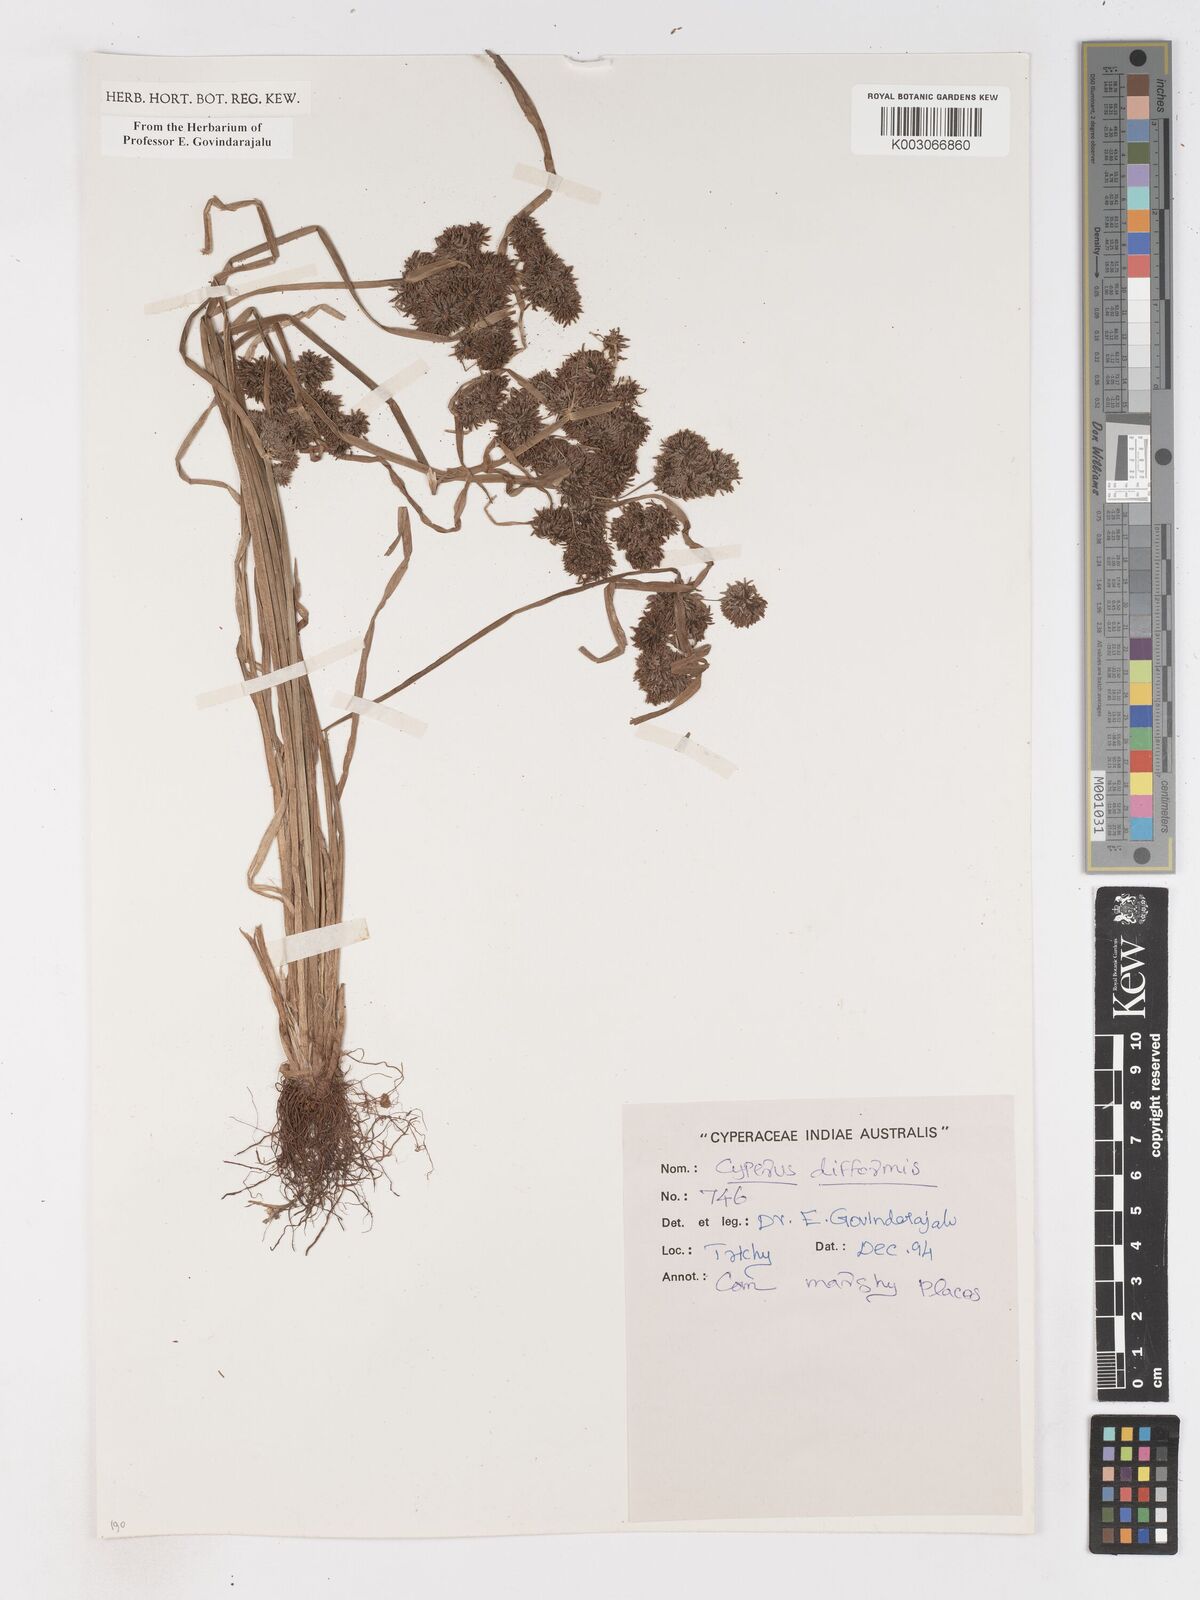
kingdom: Plantae
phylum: Tracheophyta
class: Liliopsida
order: Poales
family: Cyperaceae
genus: Cyperus
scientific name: Cyperus difformis
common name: Variable flatsedge
